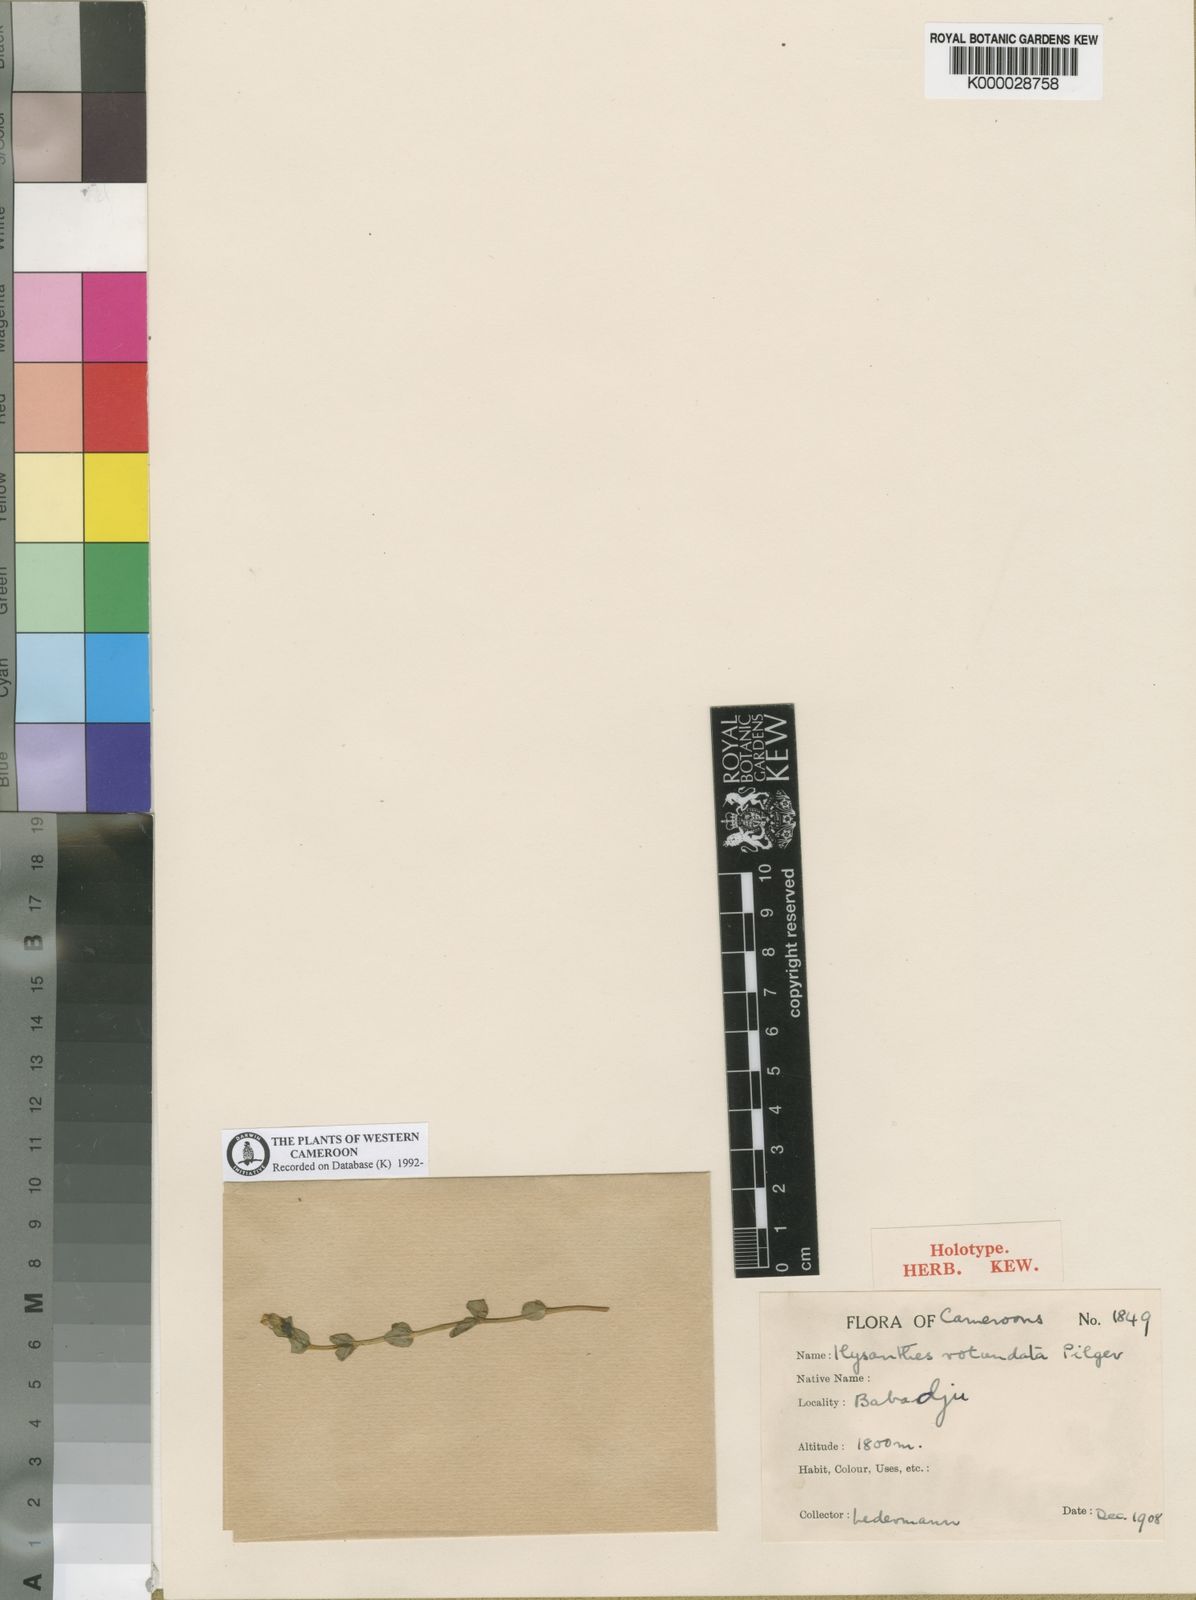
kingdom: Plantae
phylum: Tracheophyta
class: Magnoliopsida
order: Lamiales
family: Linderniaceae
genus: Lindernia
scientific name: Lindernia rotundifolia
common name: Baby’s tears
